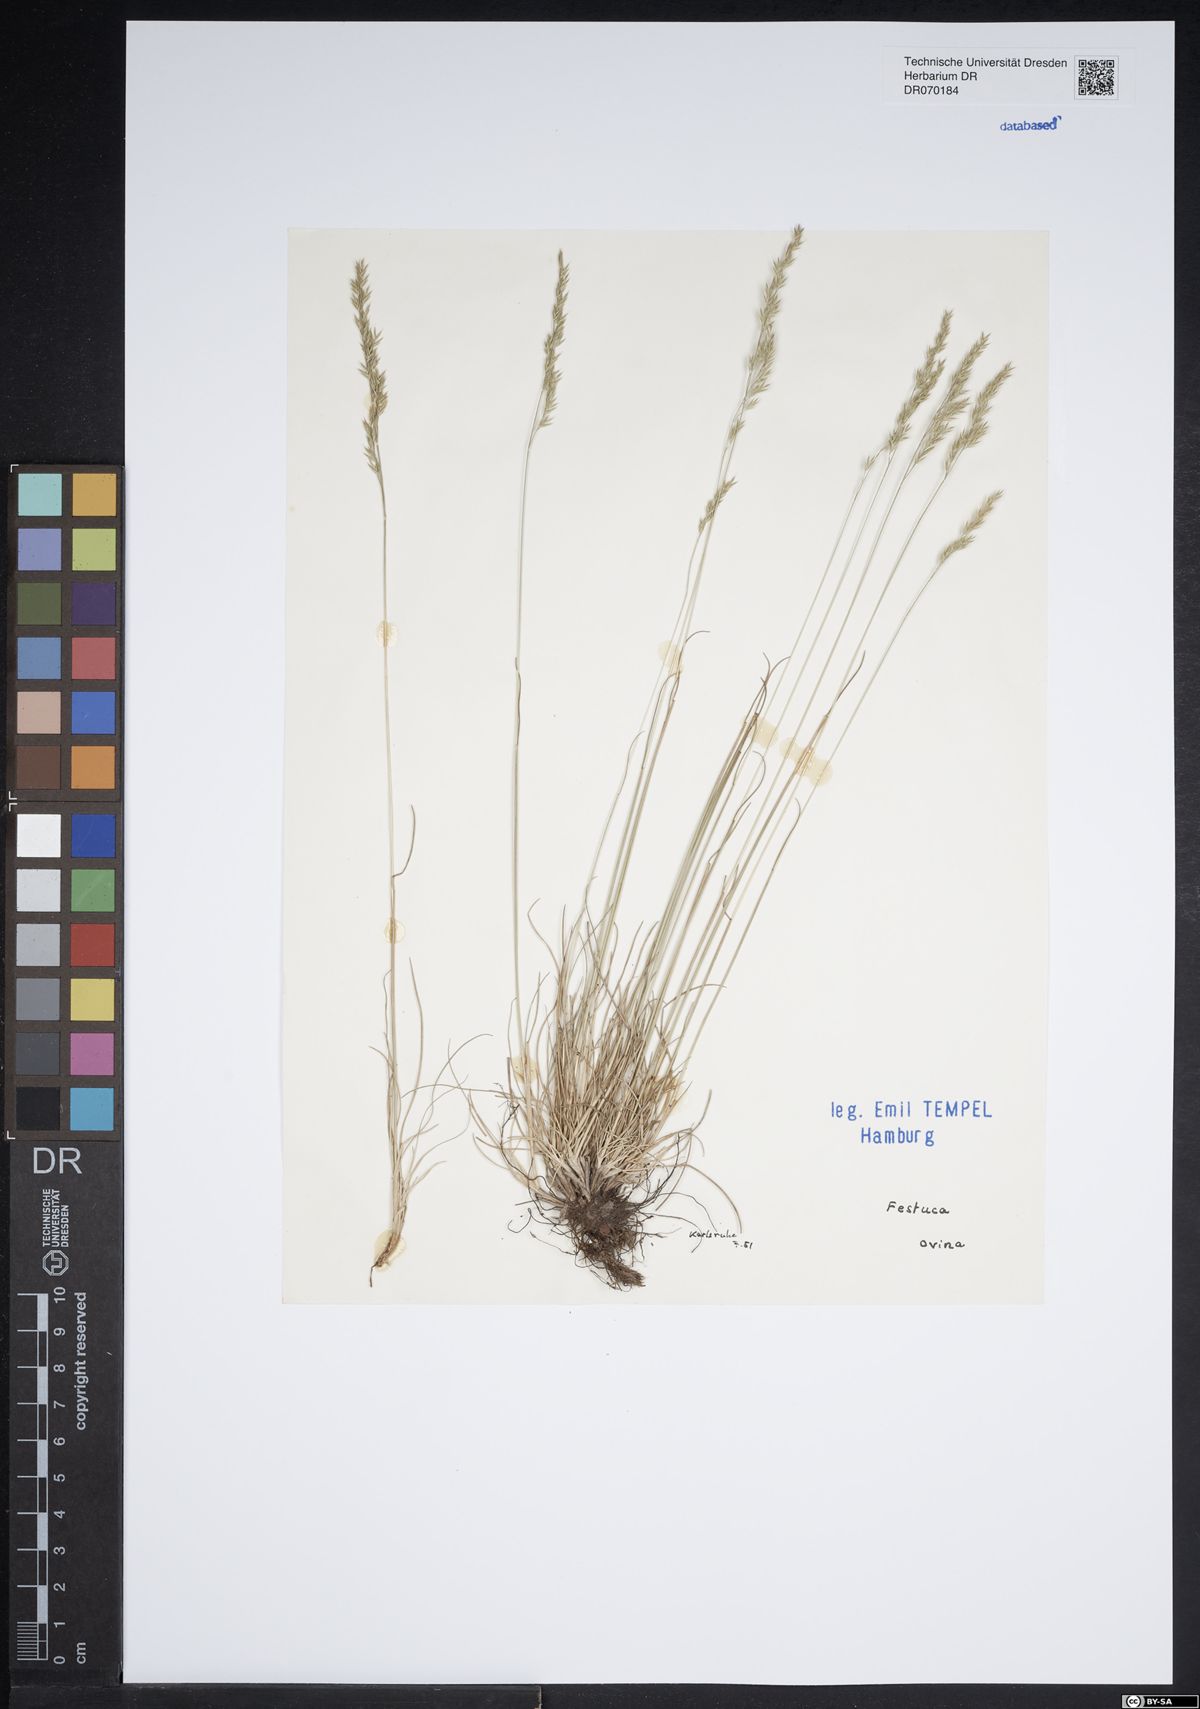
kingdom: Plantae
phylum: Tracheophyta
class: Liliopsida
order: Poales
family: Poaceae
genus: Festuca
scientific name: Festuca ovina
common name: Sheep fescue
